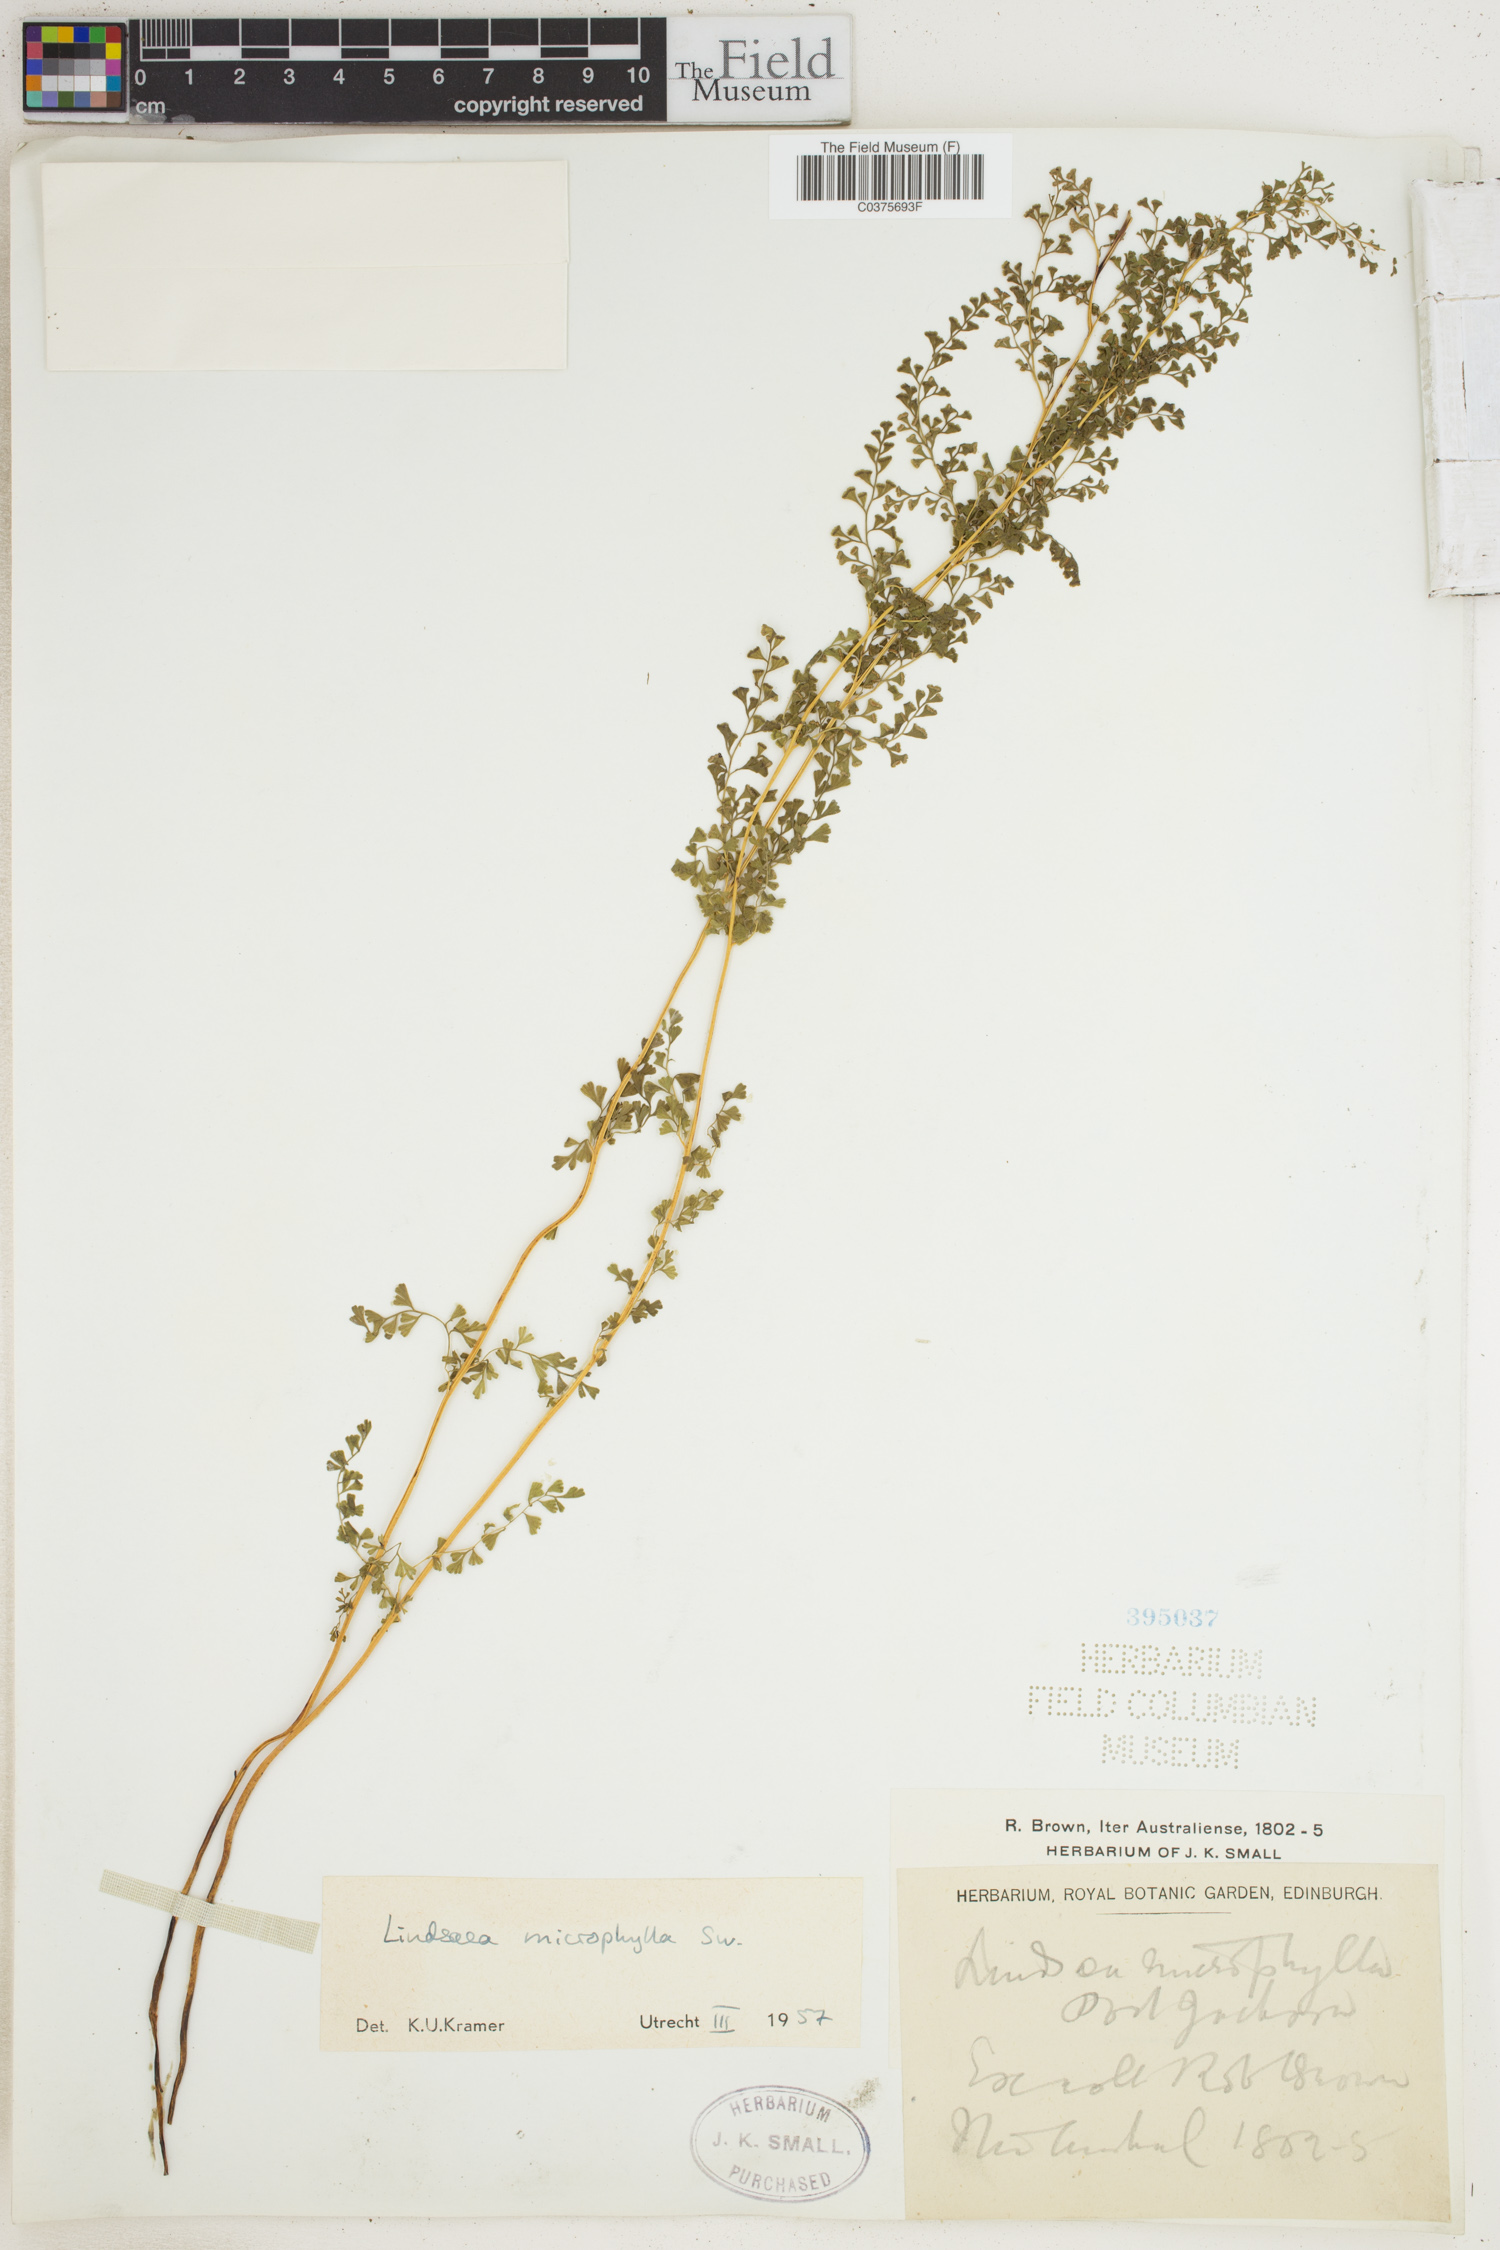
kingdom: Plantae
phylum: Tracheophyta
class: Polypodiopsida
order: Polypodiales
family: Lindsaeaceae
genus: Lindsaea
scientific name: Lindsaea stricta
